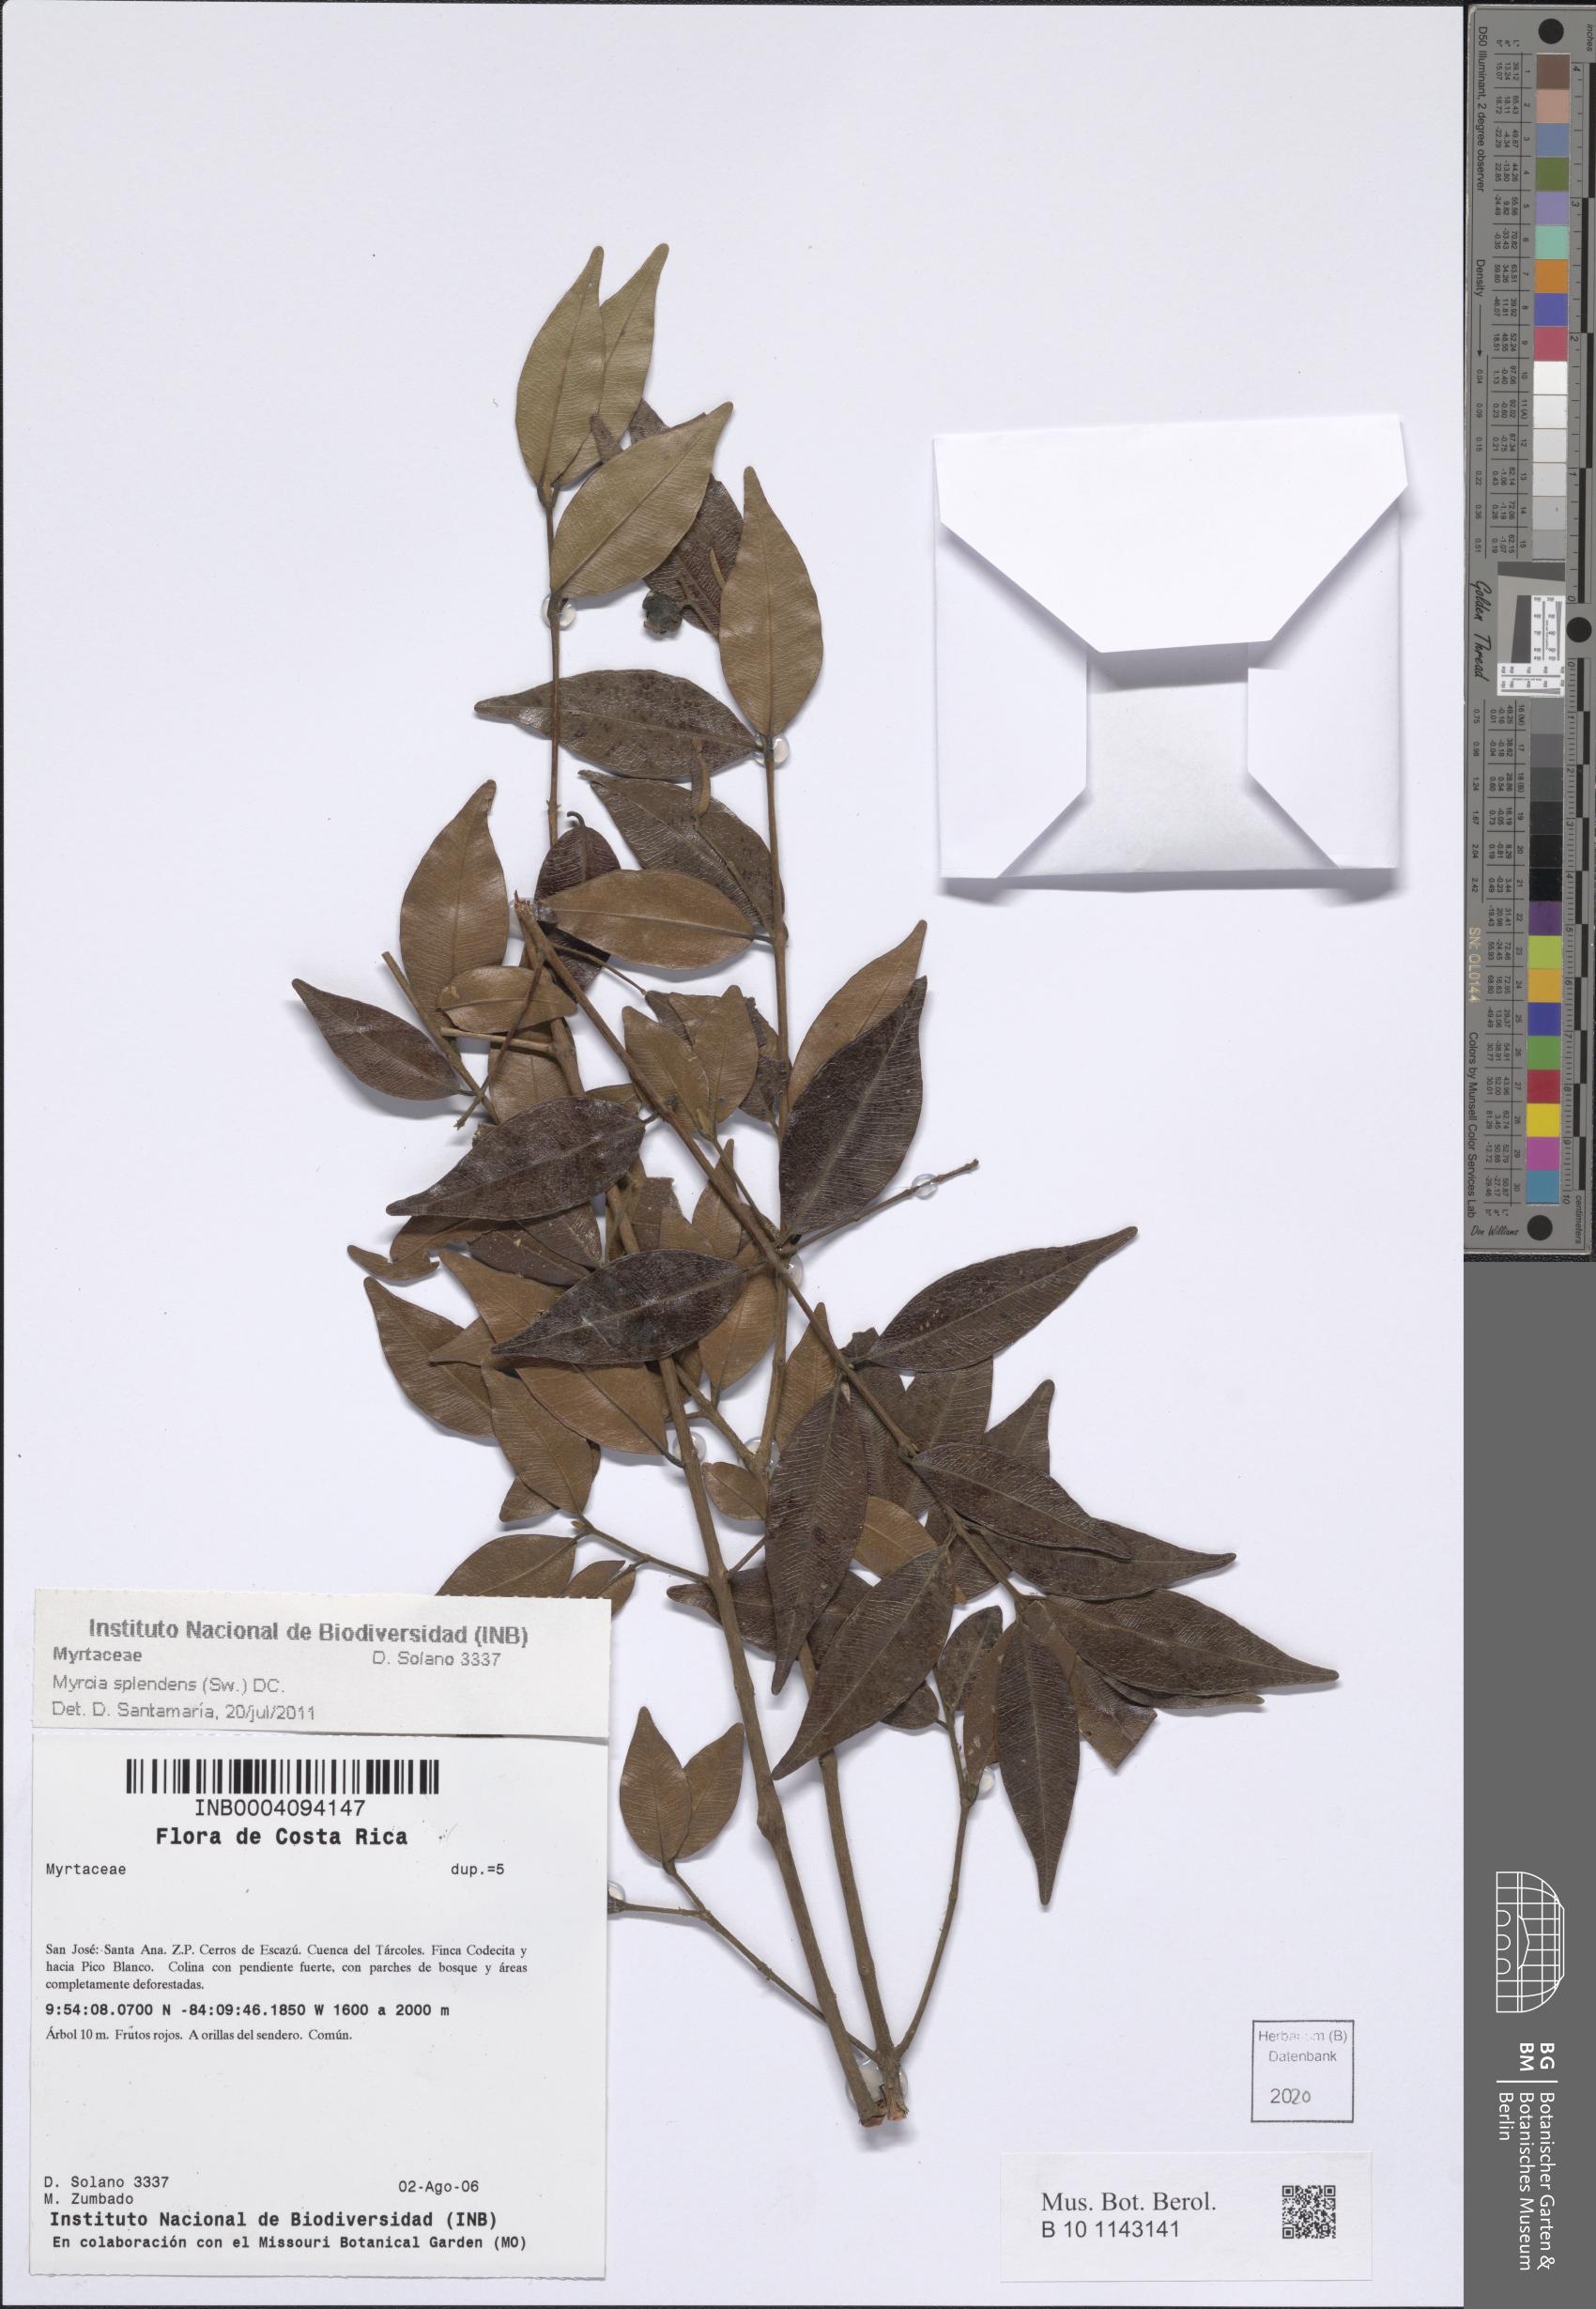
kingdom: Plantae
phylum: Tracheophyta
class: Magnoliopsida
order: Myrtales
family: Myrtaceae
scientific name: Myrtaceae
